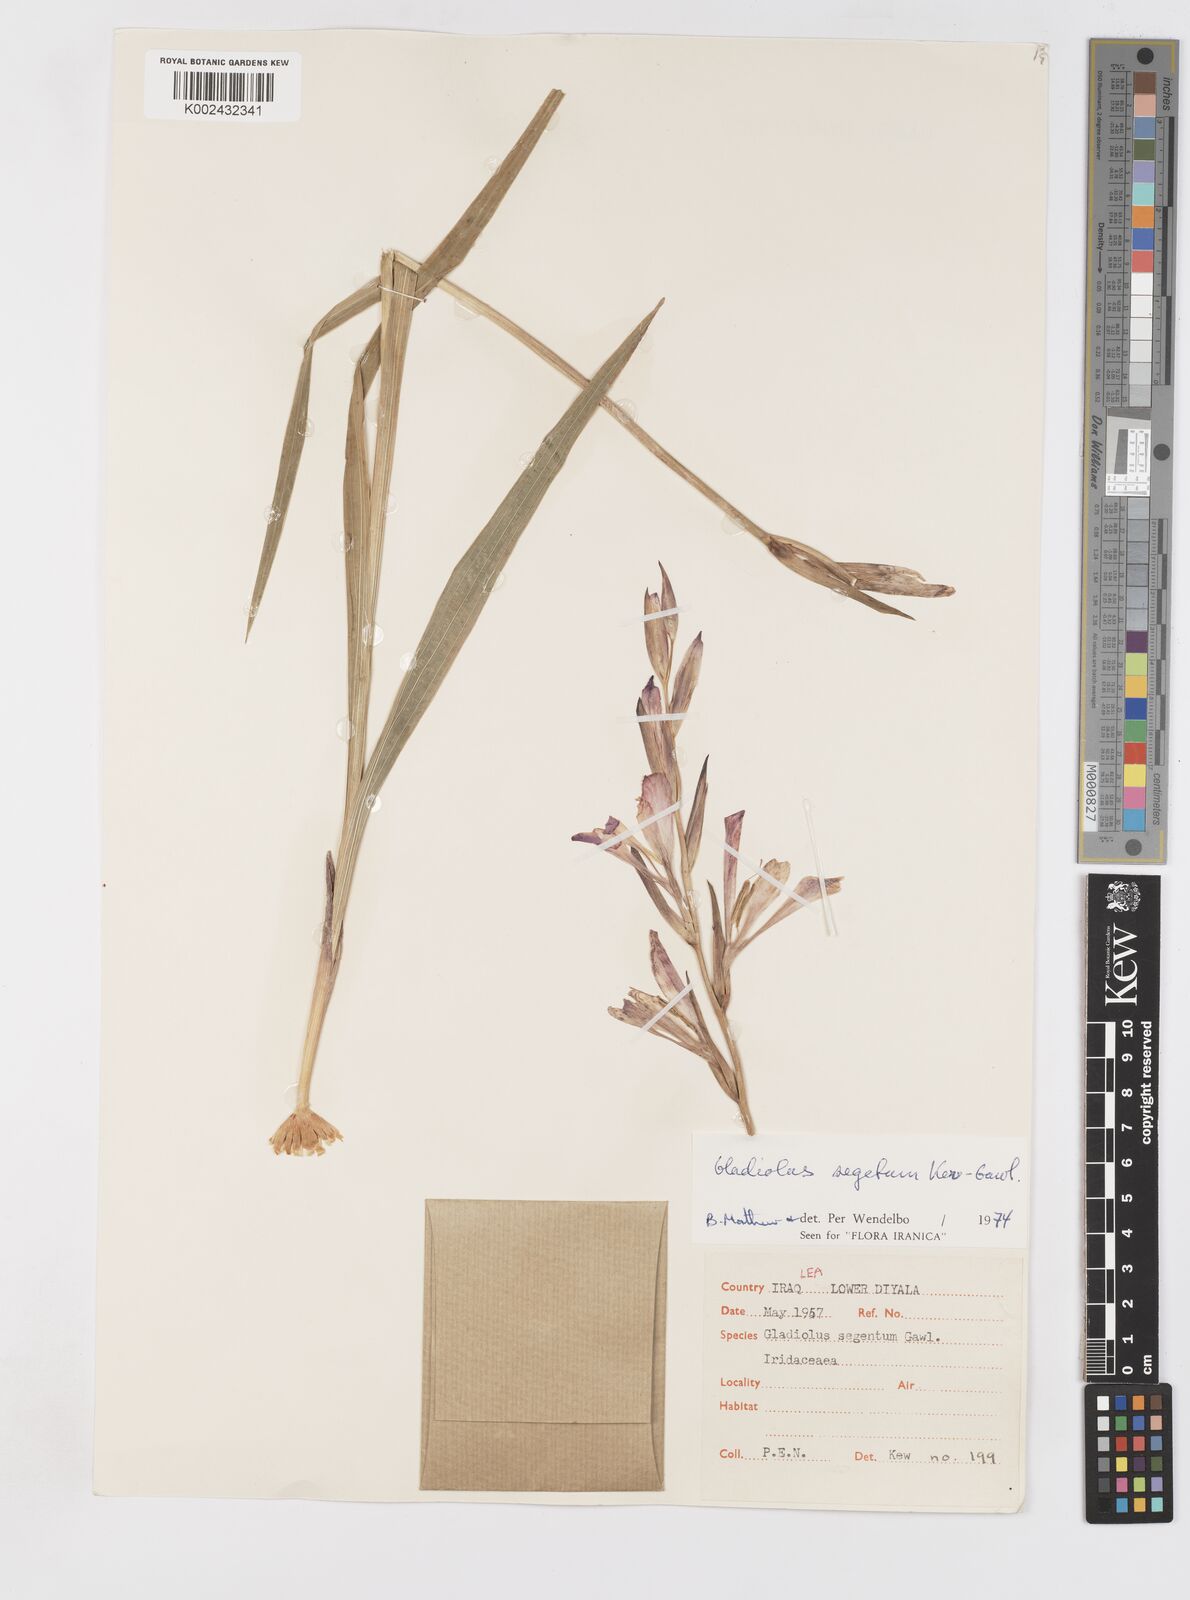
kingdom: Plantae
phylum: Tracheophyta
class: Liliopsida
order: Asparagales
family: Iridaceae
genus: Gladiolus
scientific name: Gladiolus italicus
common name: Field gladiolus
